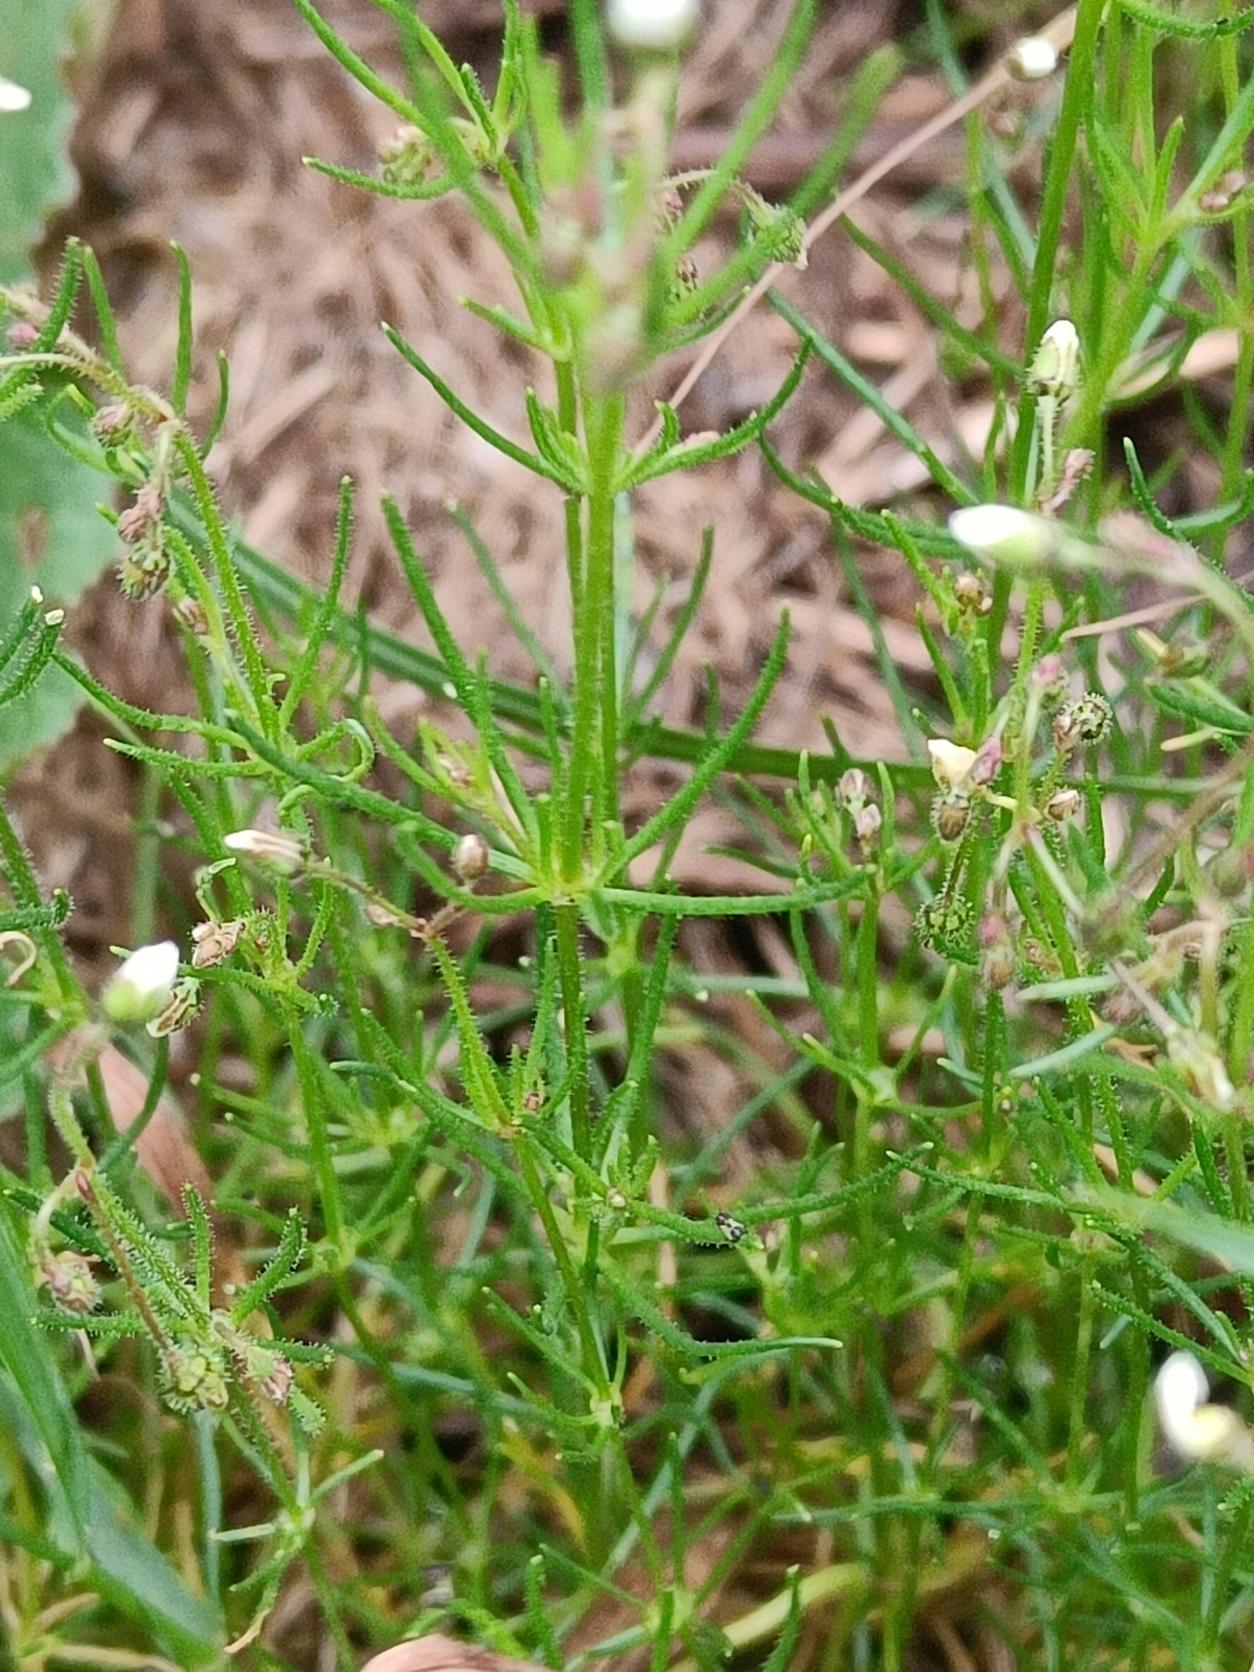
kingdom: Plantae
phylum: Tracheophyta
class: Magnoliopsida
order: Caryophyllales
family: Caryophyllaceae
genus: Spergula
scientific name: Spergula arvensis
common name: Almindelig spergel
